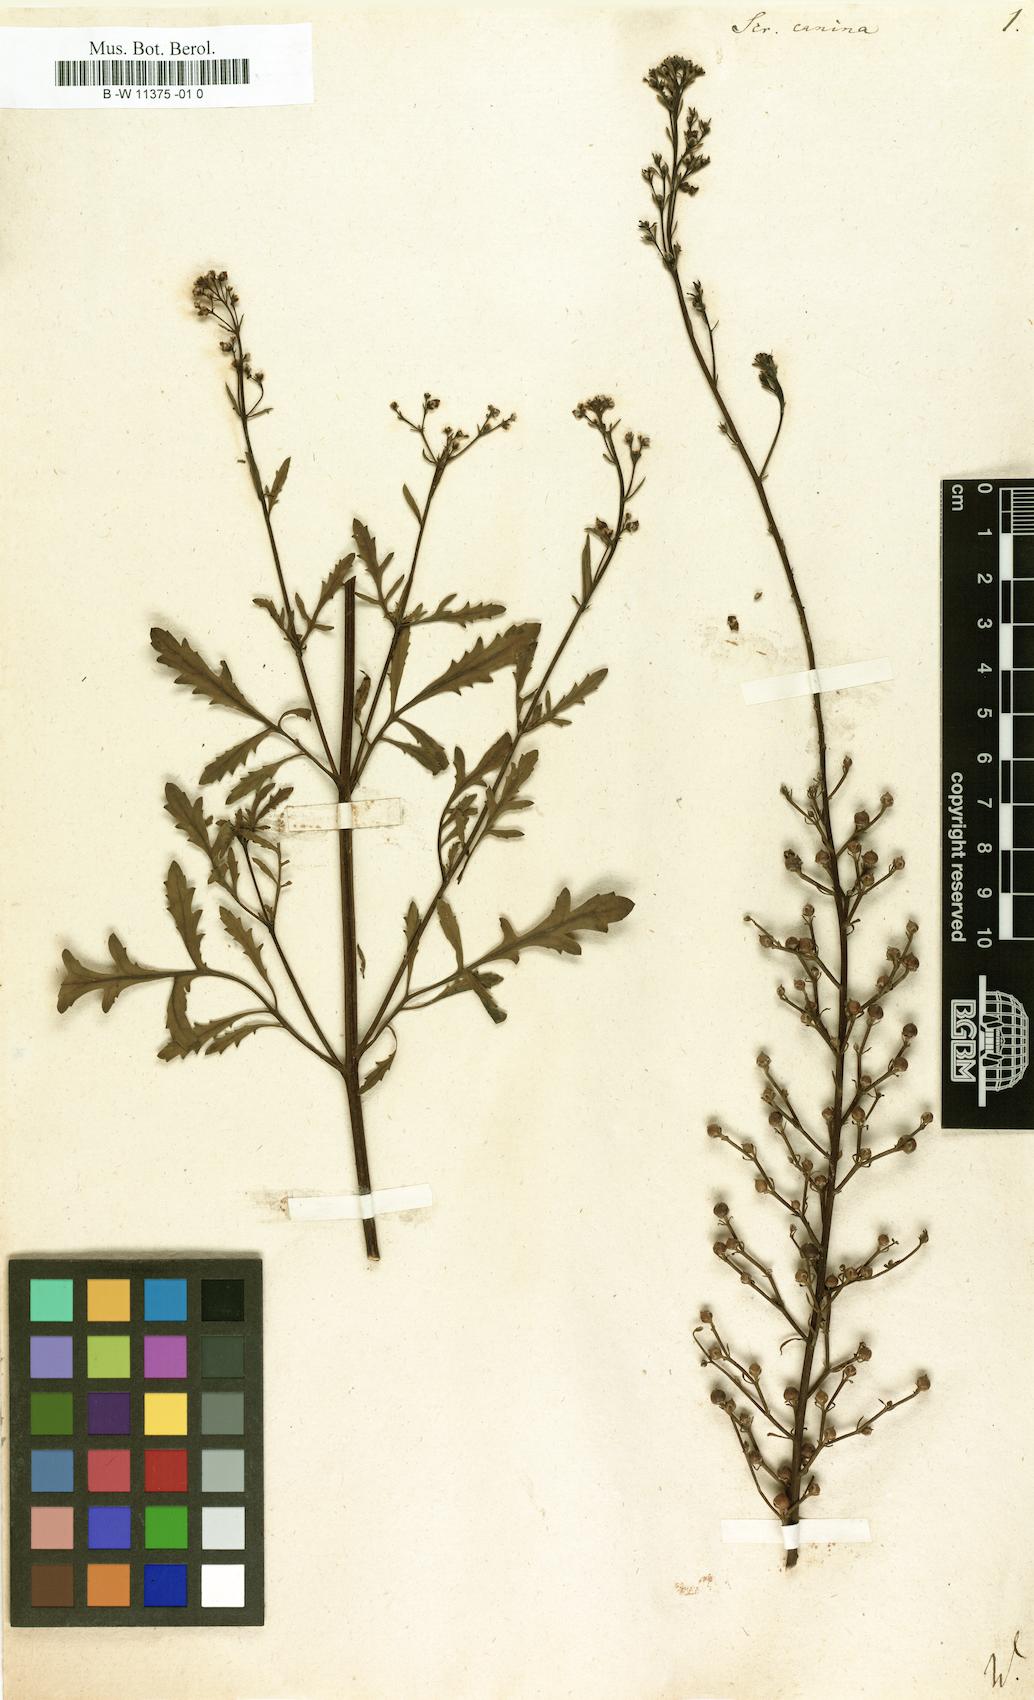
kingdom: Plantae
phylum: Tracheophyta
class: Magnoliopsida
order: Lamiales
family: Scrophulariaceae
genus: Scrophularia
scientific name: Scrophularia canina
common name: French figwort
